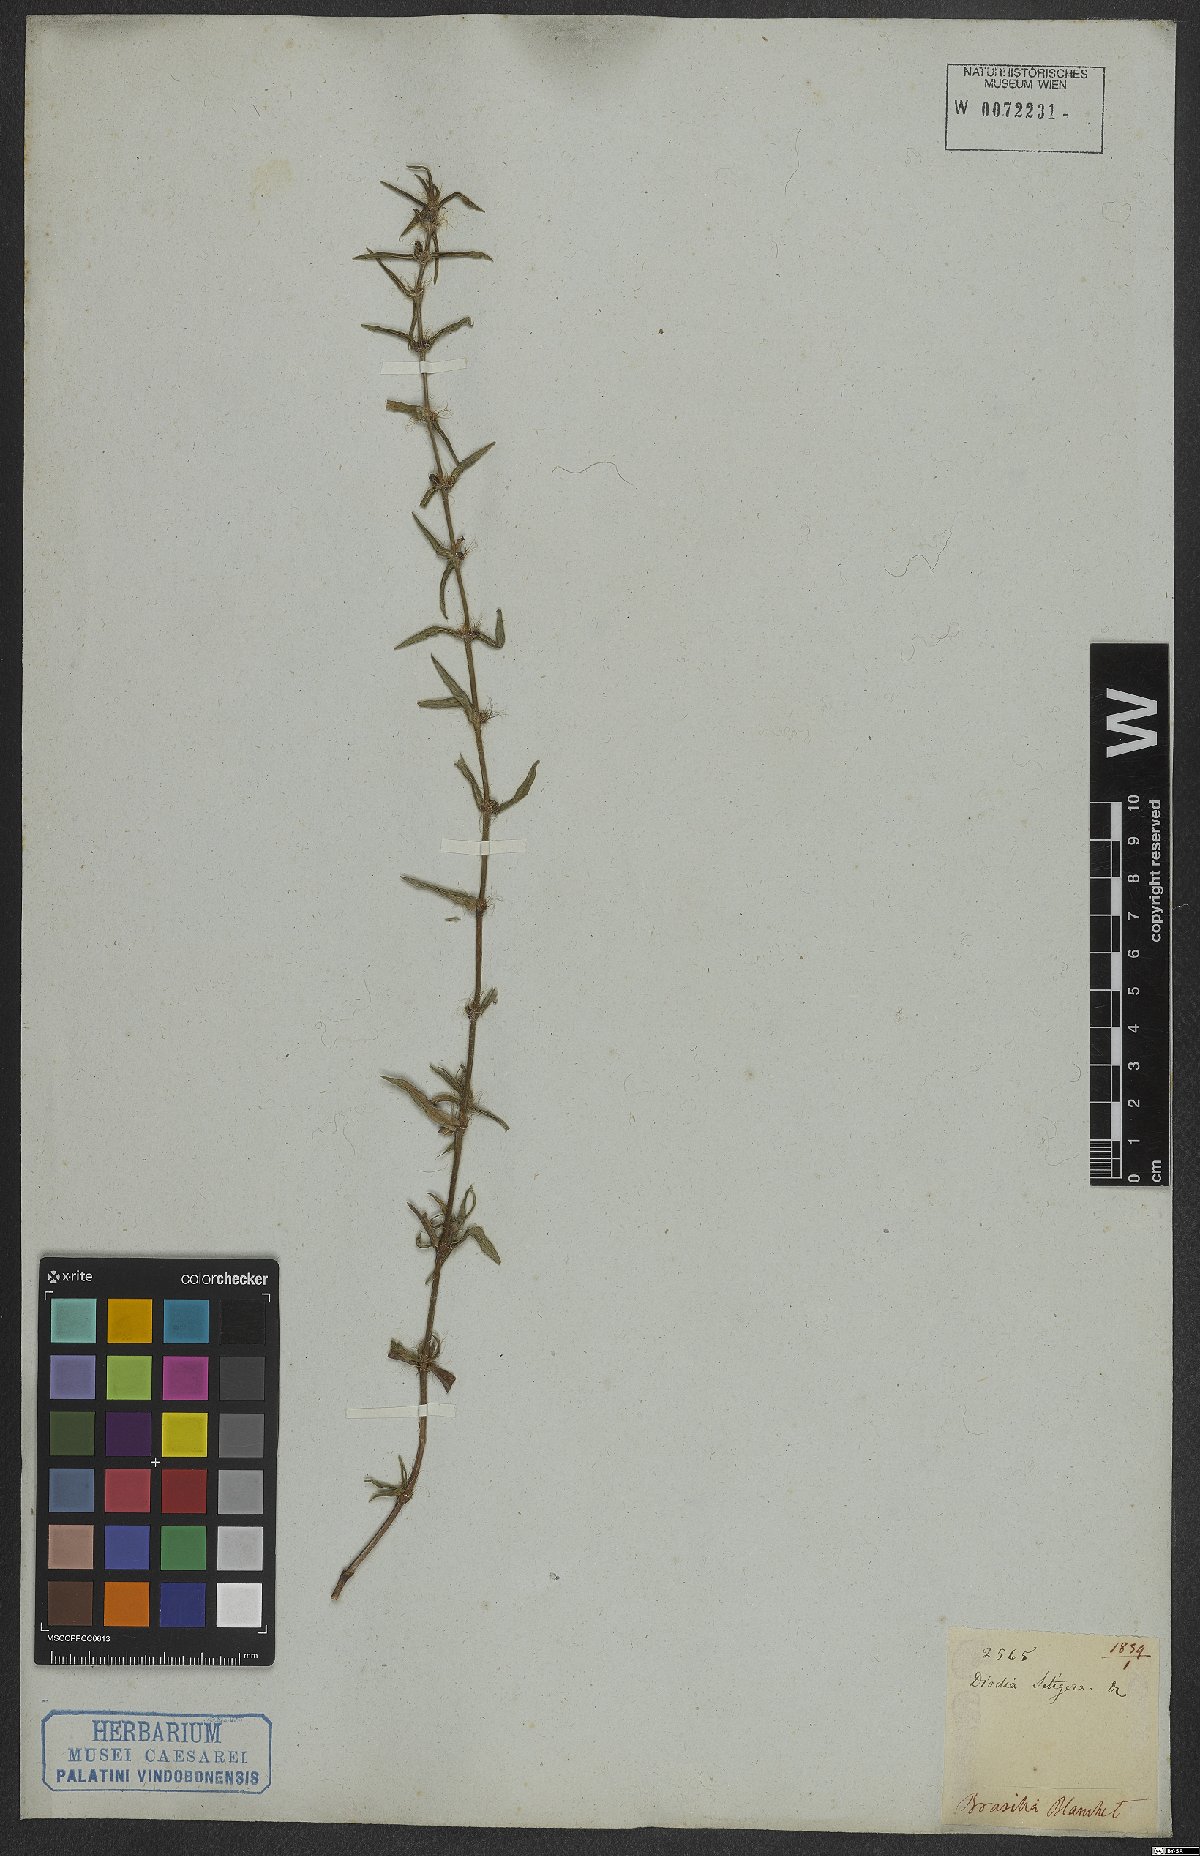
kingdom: Plantae
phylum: Tracheophyta
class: Magnoliopsida
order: Gentianales
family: Rubiaceae
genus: Hexasepalum
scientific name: Hexasepalum apiculatum
